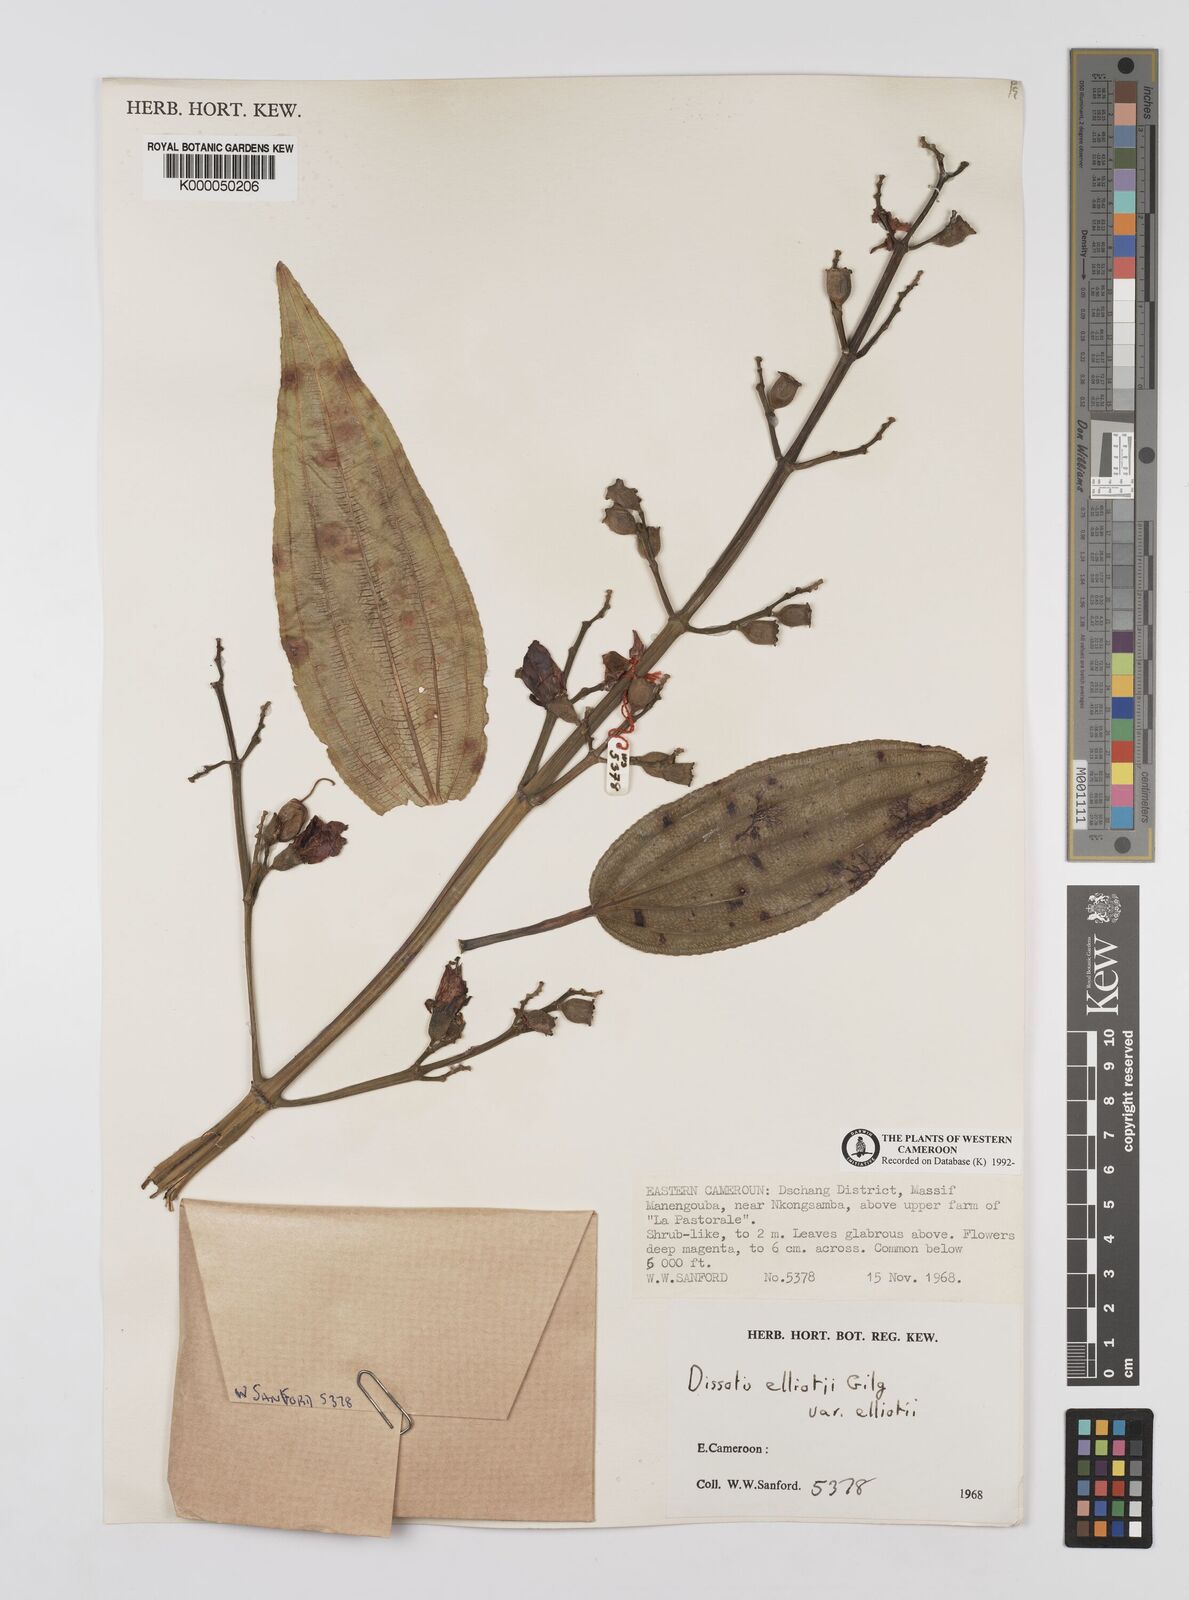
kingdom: Plantae
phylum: Tracheophyta
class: Magnoliopsida
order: Myrtales
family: Melastomataceae
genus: Dissotis
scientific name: Dissotis
